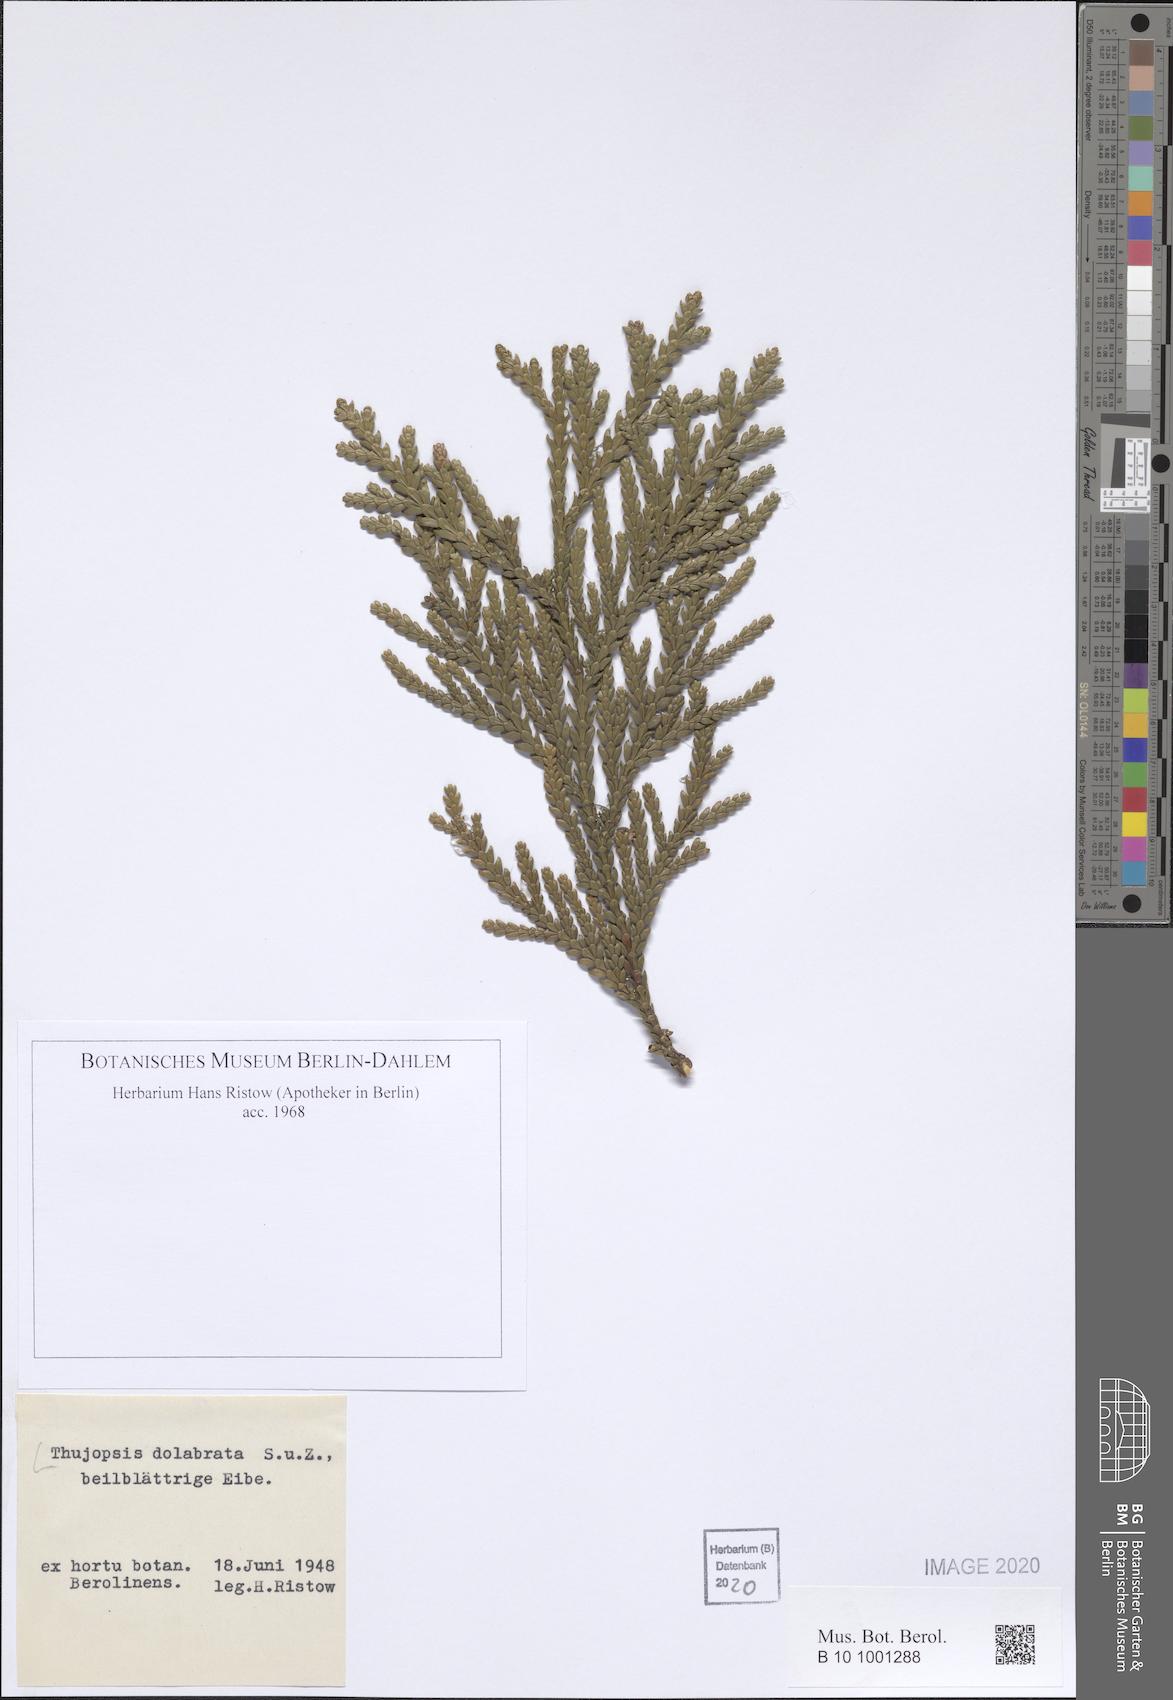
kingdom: Plantae
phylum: Tracheophyta
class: Pinopsida
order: Pinales
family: Cupressaceae
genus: Thujopsis
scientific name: Thujopsis dolabrata
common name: Hiba
